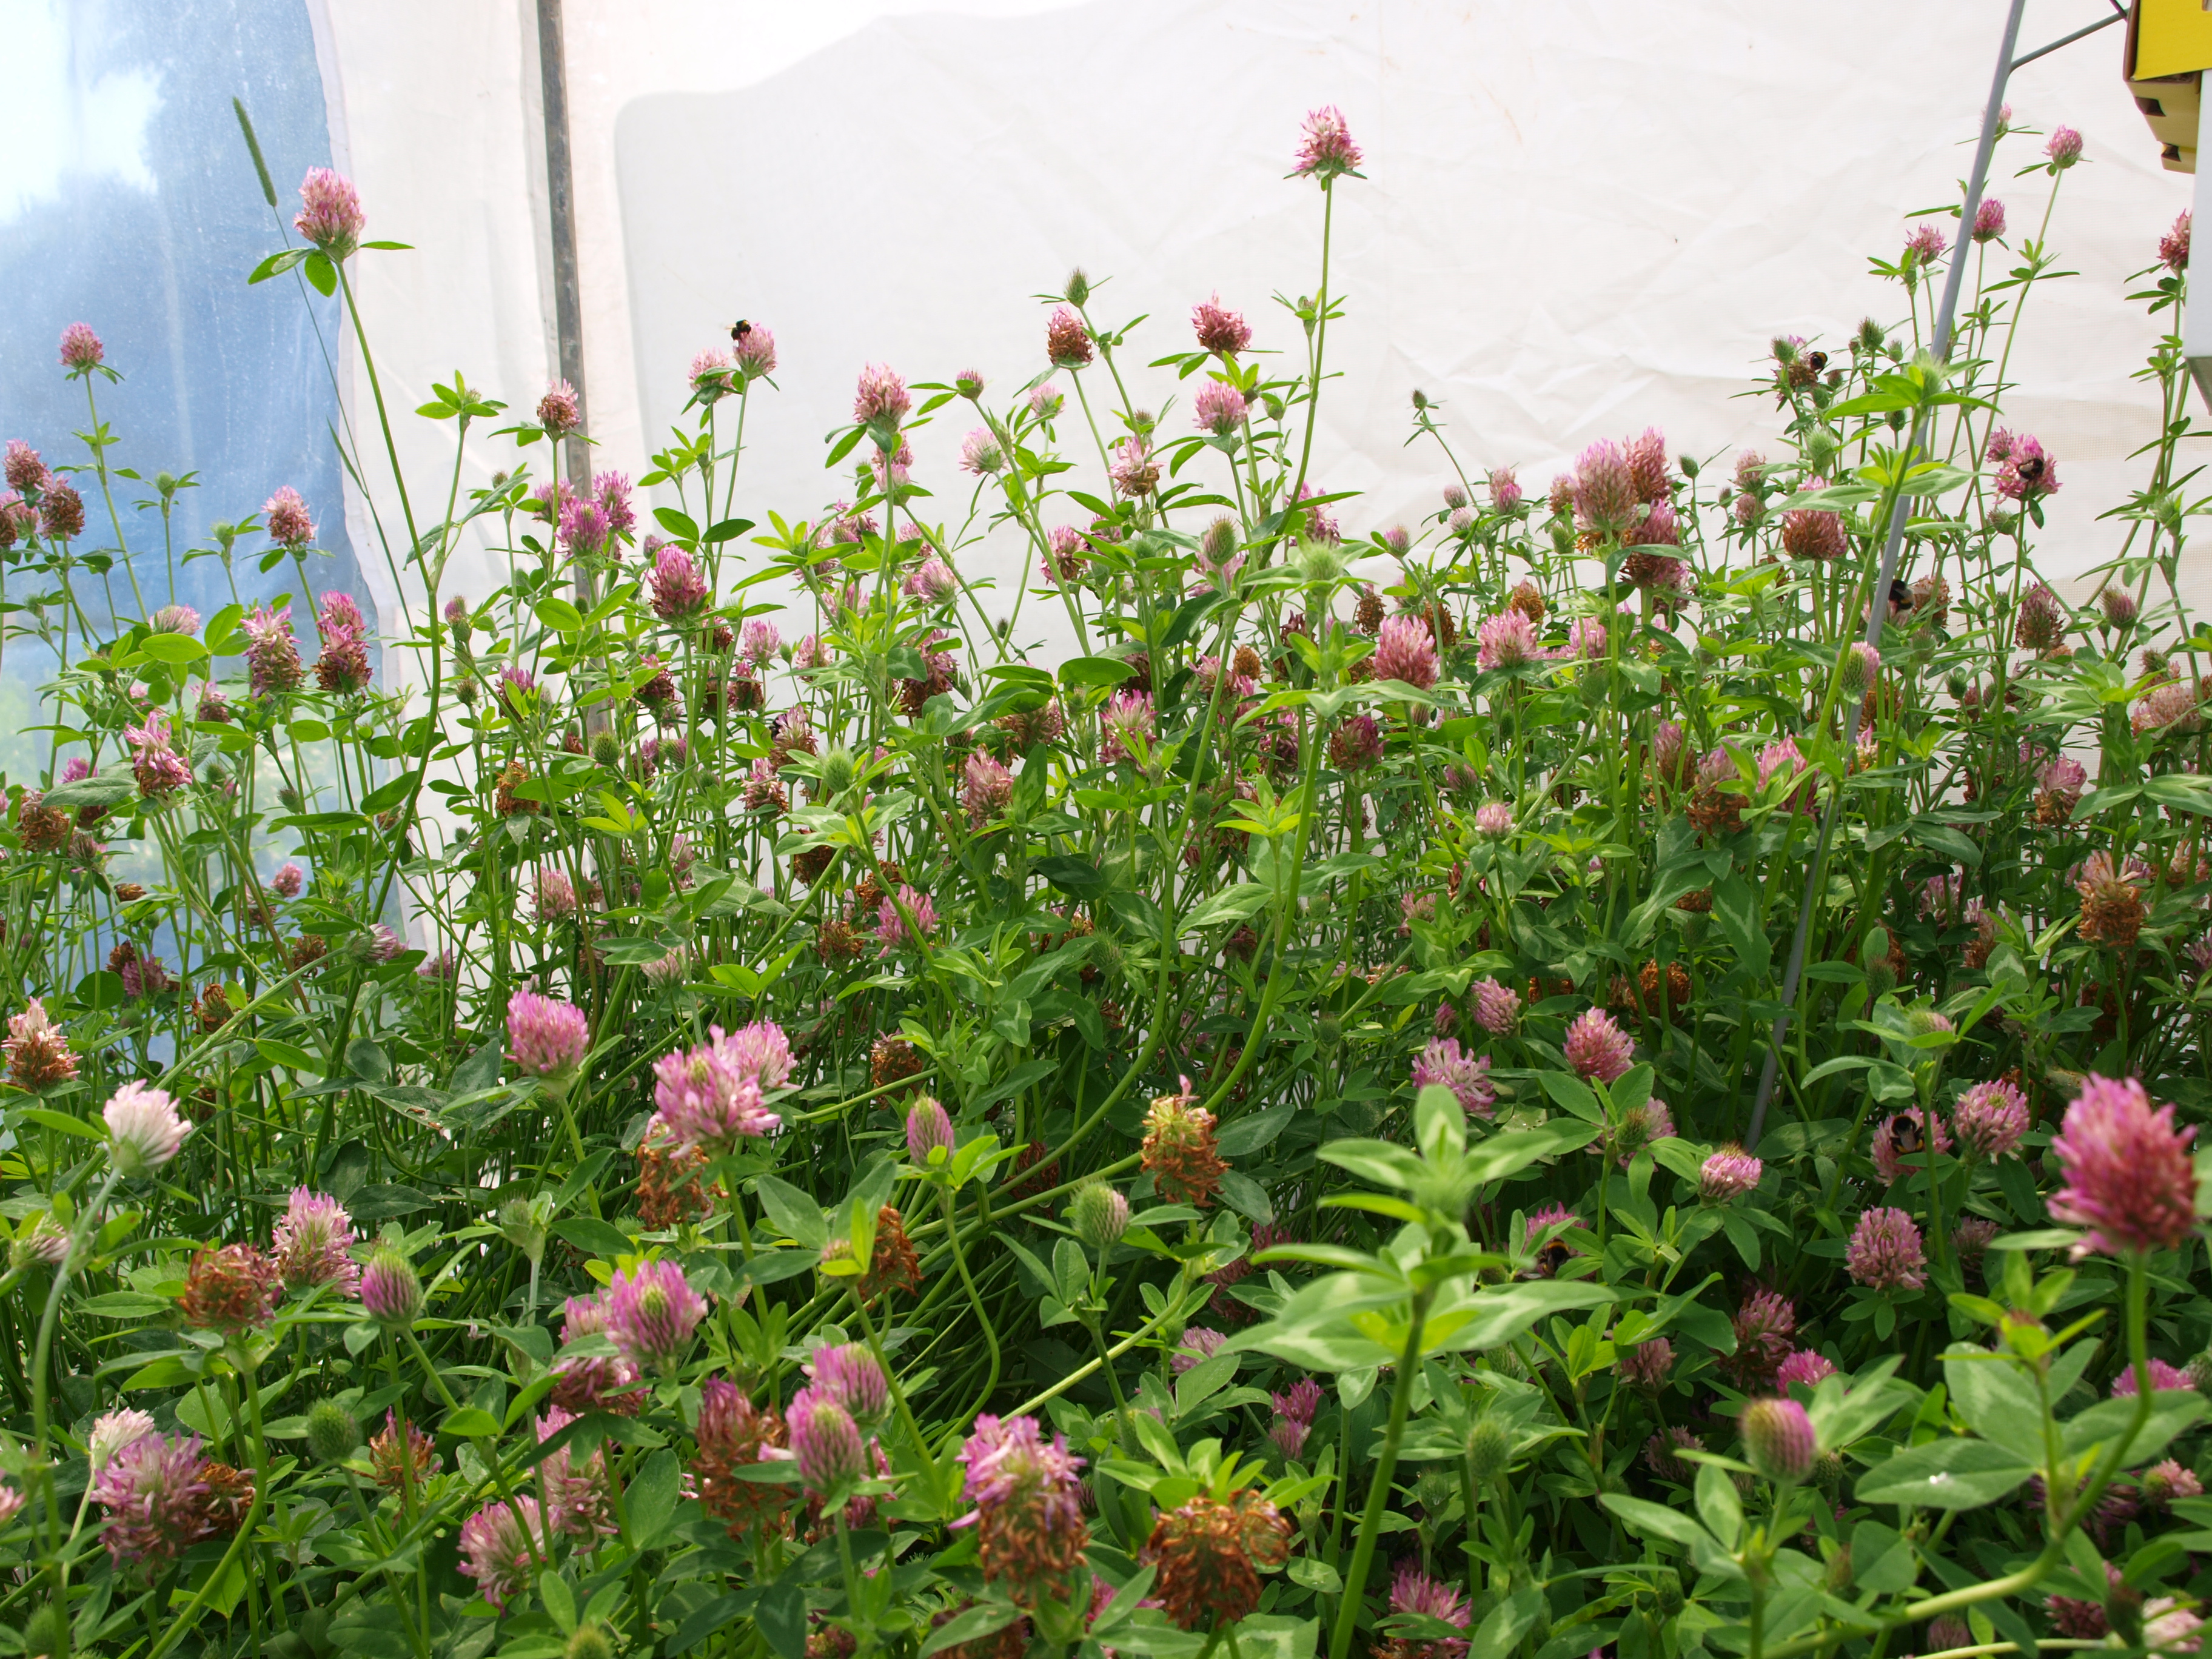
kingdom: Plantae
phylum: Tracheophyta
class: Magnoliopsida
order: Fabales
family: Fabaceae
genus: Trifolium
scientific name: Trifolium pratense
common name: Red clover
